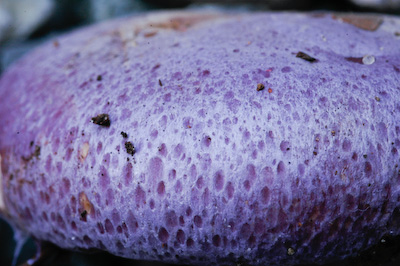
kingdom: Fungi
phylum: Basidiomycota
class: Agaricomycetes
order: Agaricales
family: Cortinariaceae
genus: Calonarius
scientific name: Calonarius sodagnitus
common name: violblå slørhat
